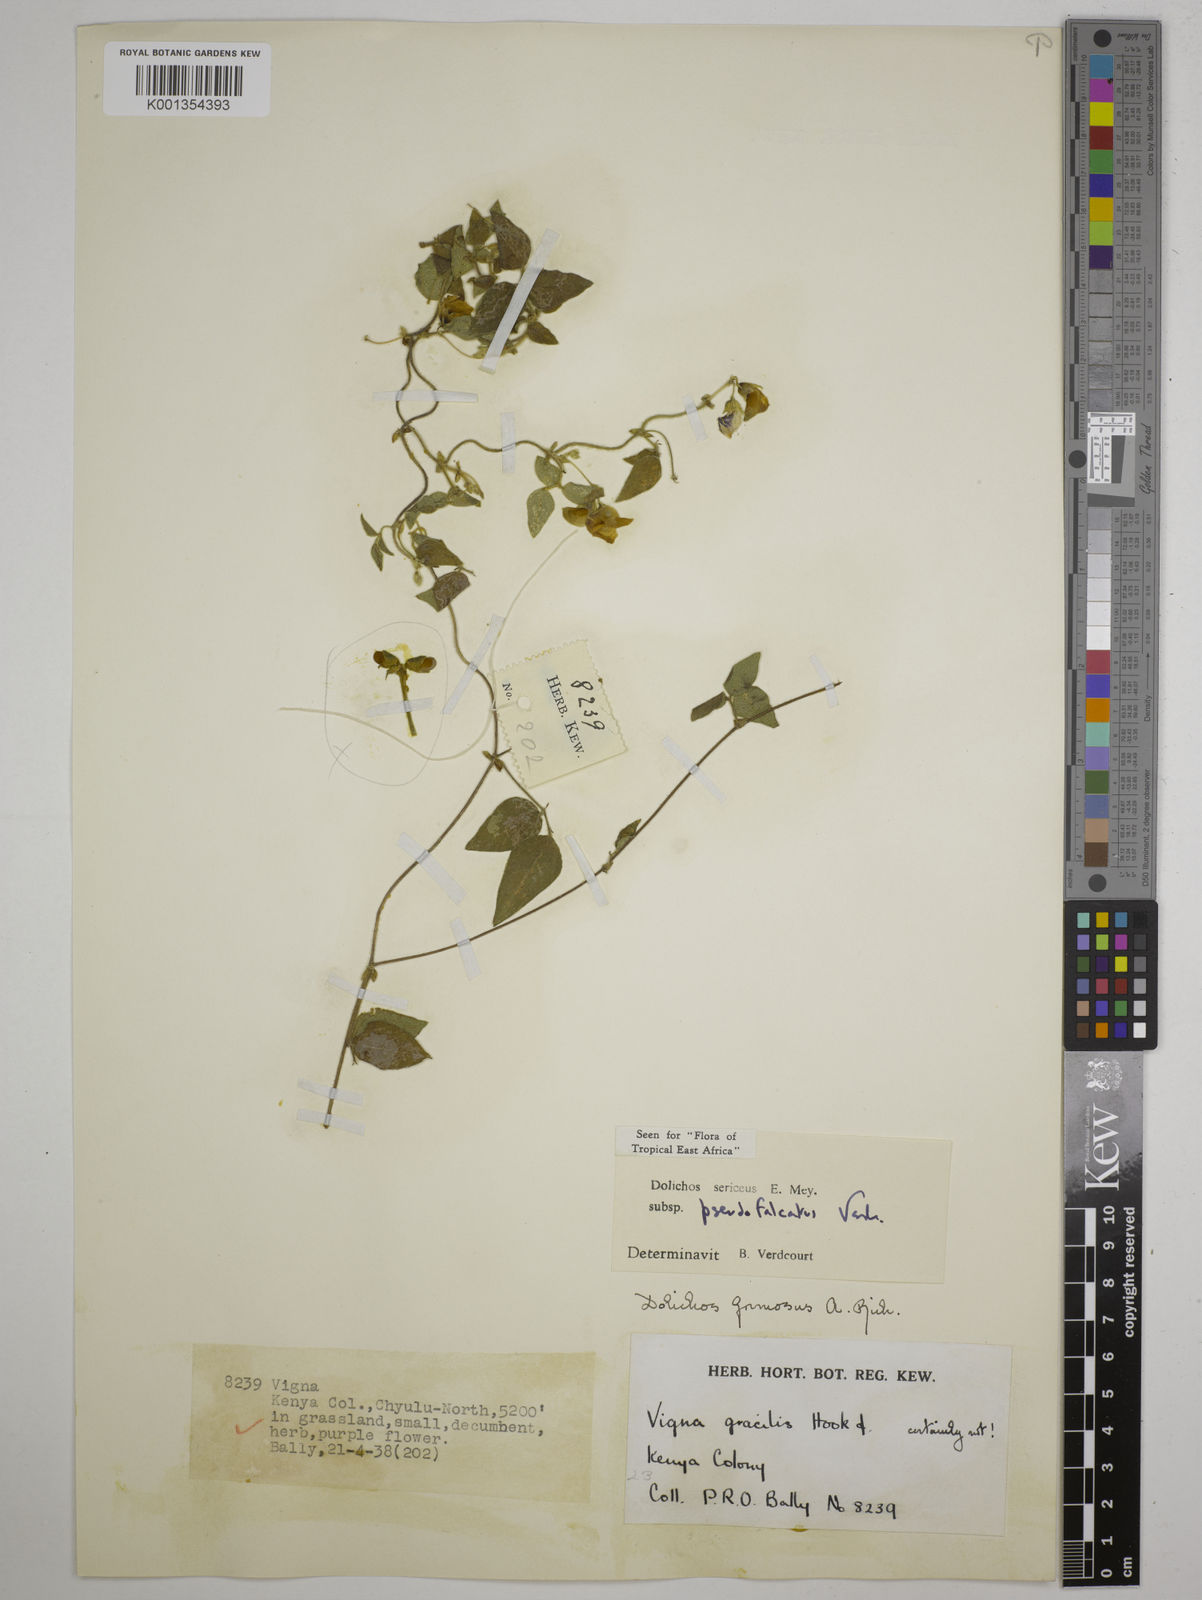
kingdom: Plantae
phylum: Tracheophyta
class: Magnoliopsida
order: Fabales
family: Fabaceae
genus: Dolichos
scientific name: Dolichos
